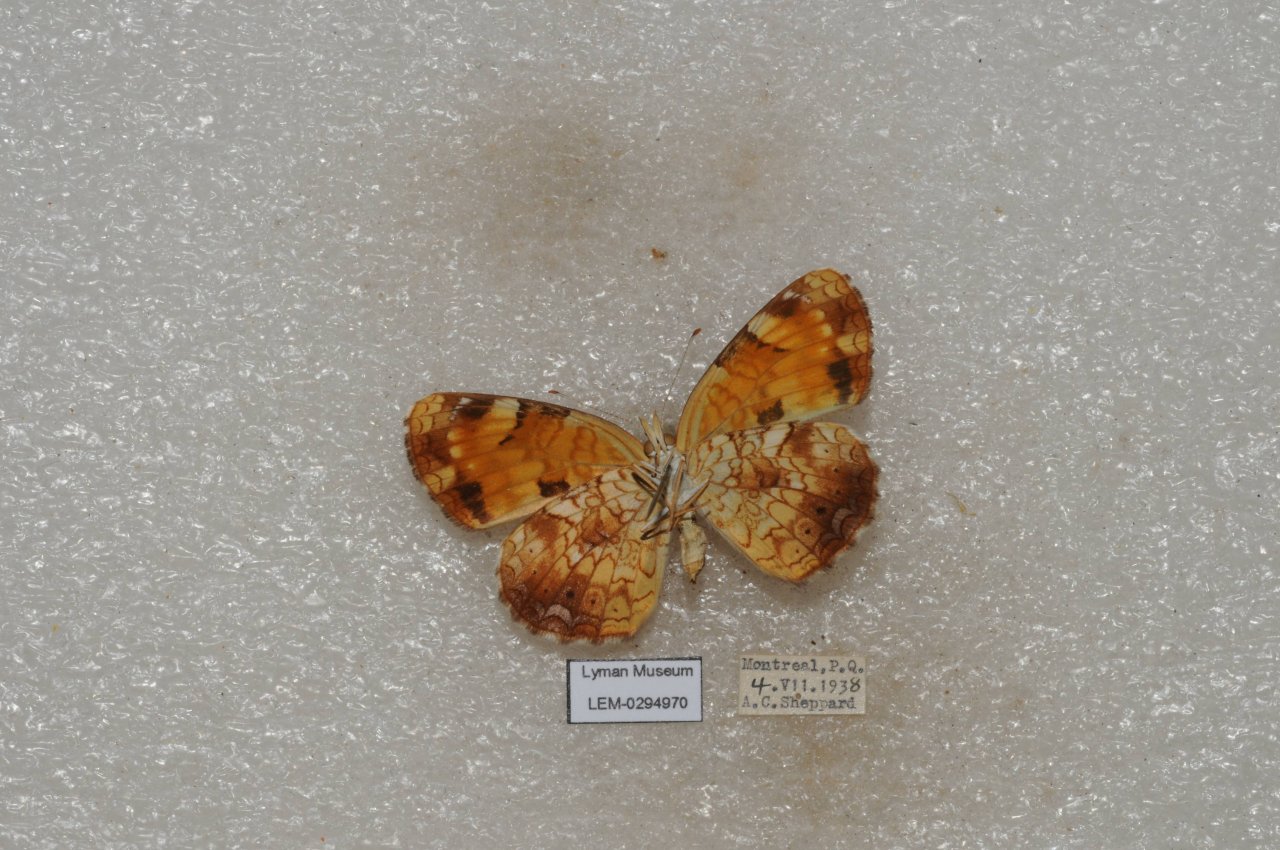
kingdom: Animalia
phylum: Arthropoda
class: Insecta
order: Lepidoptera
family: Nymphalidae
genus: Phyciodes
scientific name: Phyciodes tharos
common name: Northern Crescent
